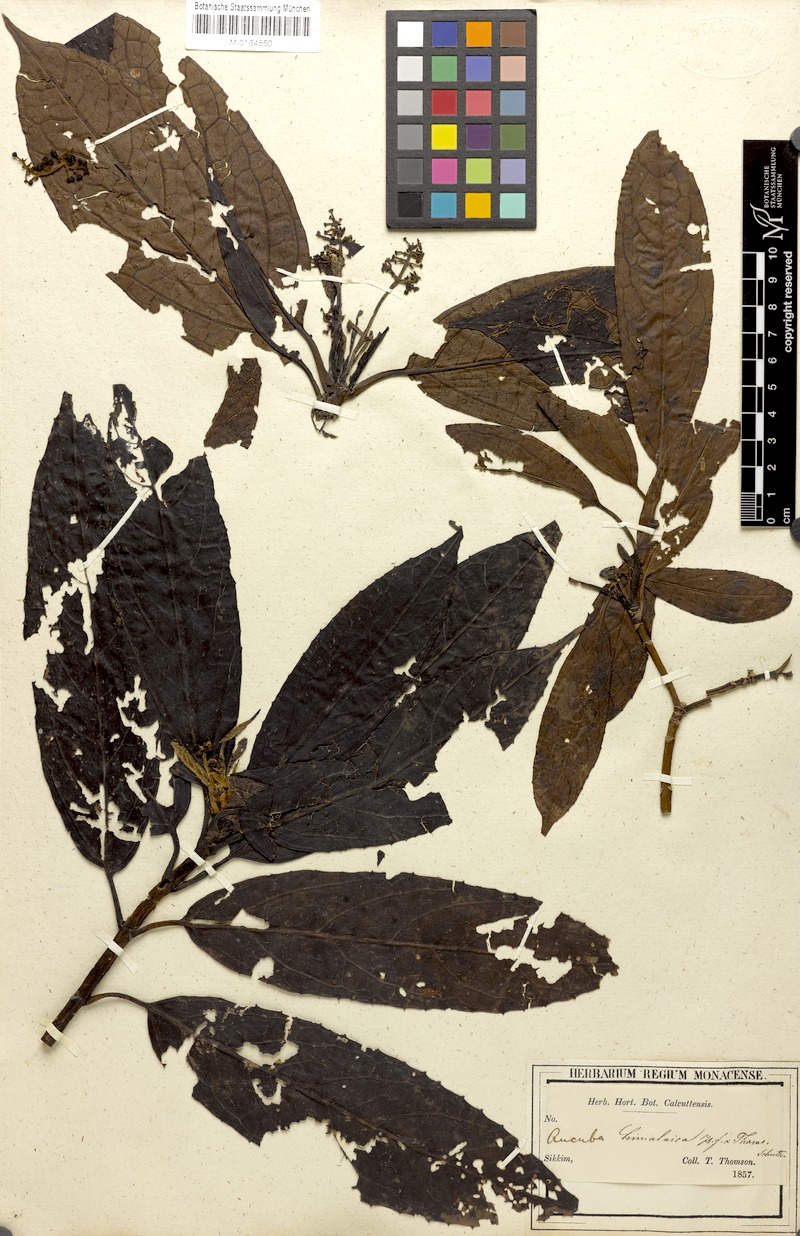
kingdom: Plantae
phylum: Tracheophyta
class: Magnoliopsida
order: Garryales
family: Garryaceae
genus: Aucuba
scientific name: Aucuba himalaica
